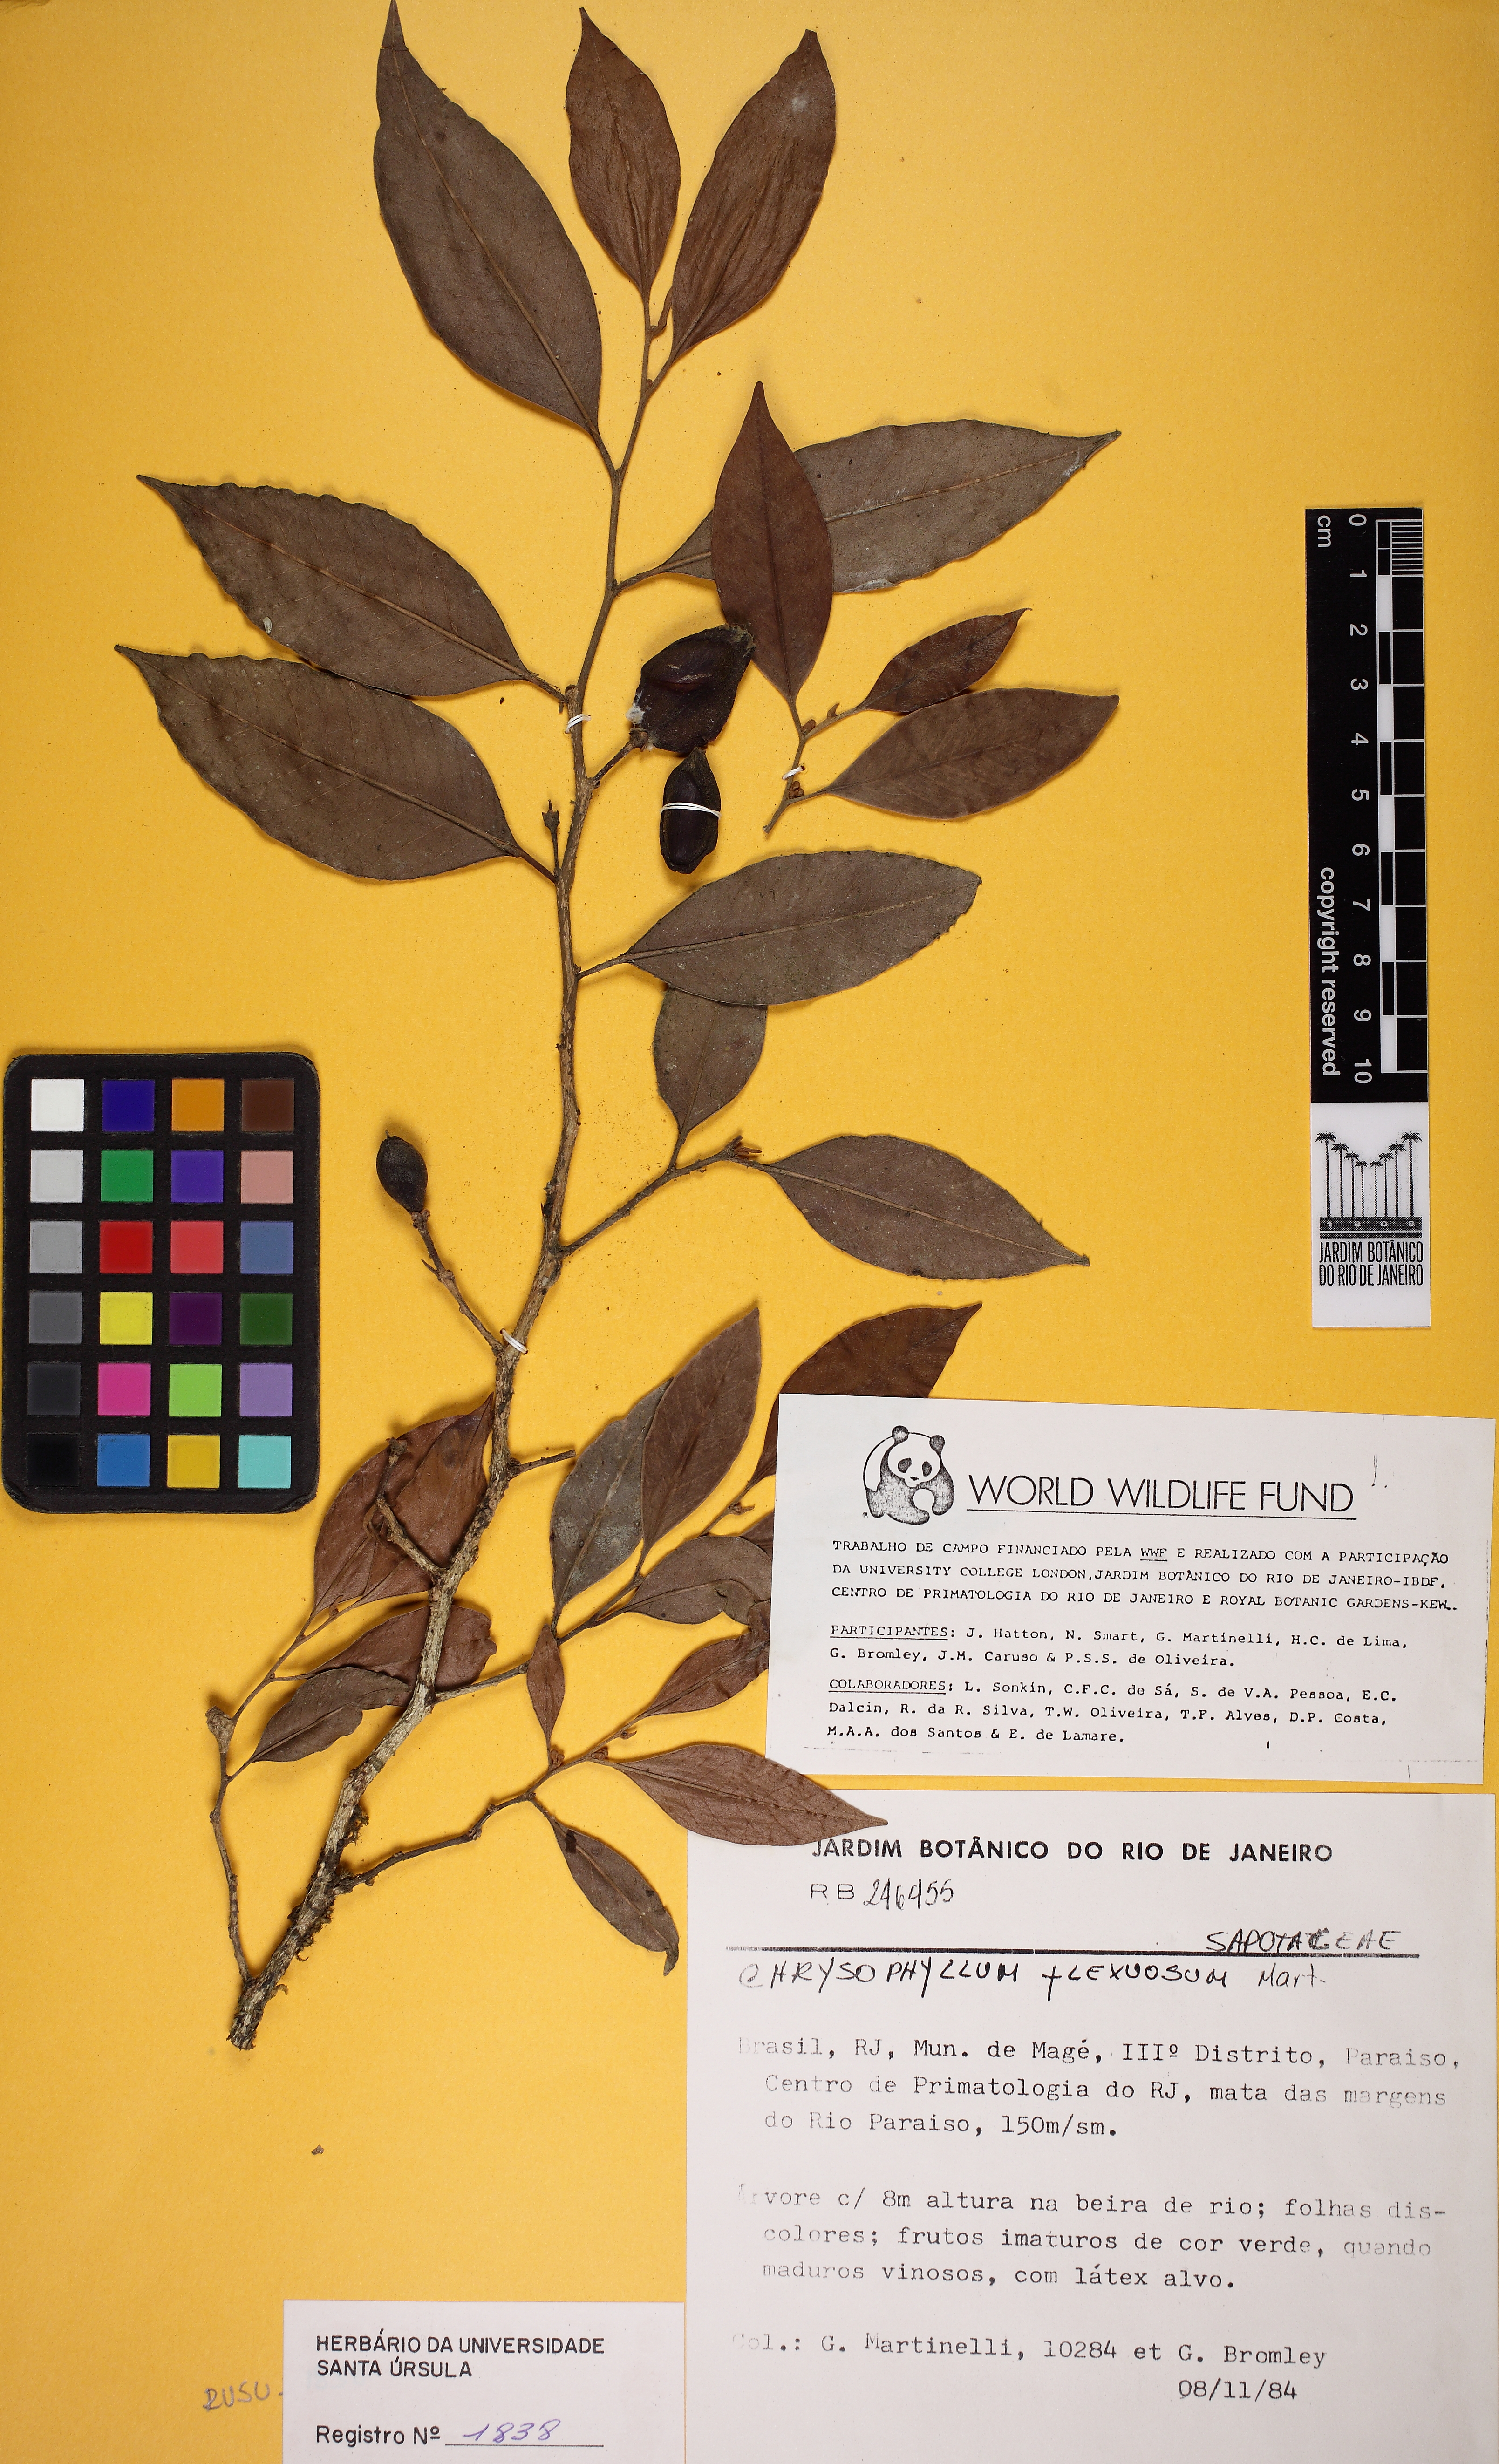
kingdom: Plantae
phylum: Tracheophyta
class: Magnoliopsida
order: Ericales
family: Sapotaceae
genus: Chrysophyllum
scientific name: Chrysophyllum flexuosum
